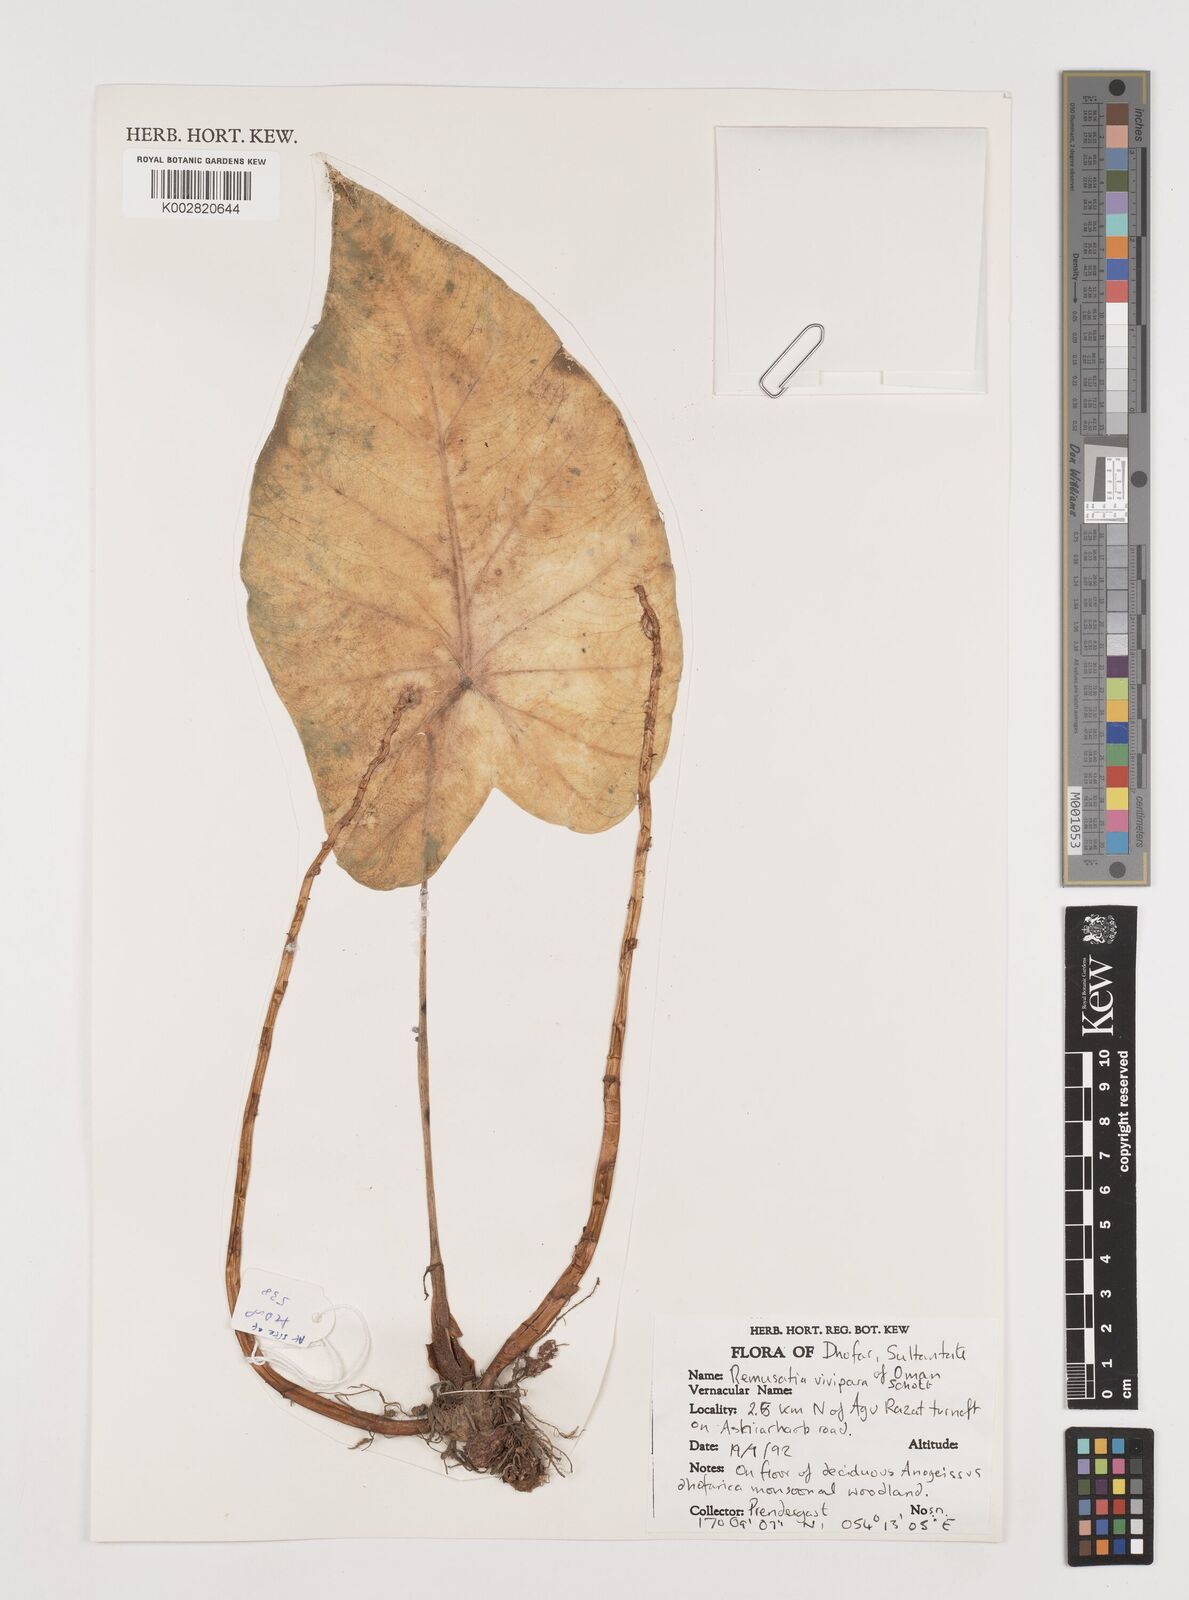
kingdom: Plantae
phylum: Tracheophyta
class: Liliopsida
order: Alismatales
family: Araceae
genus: Remusatia
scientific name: Remusatia vivipara
